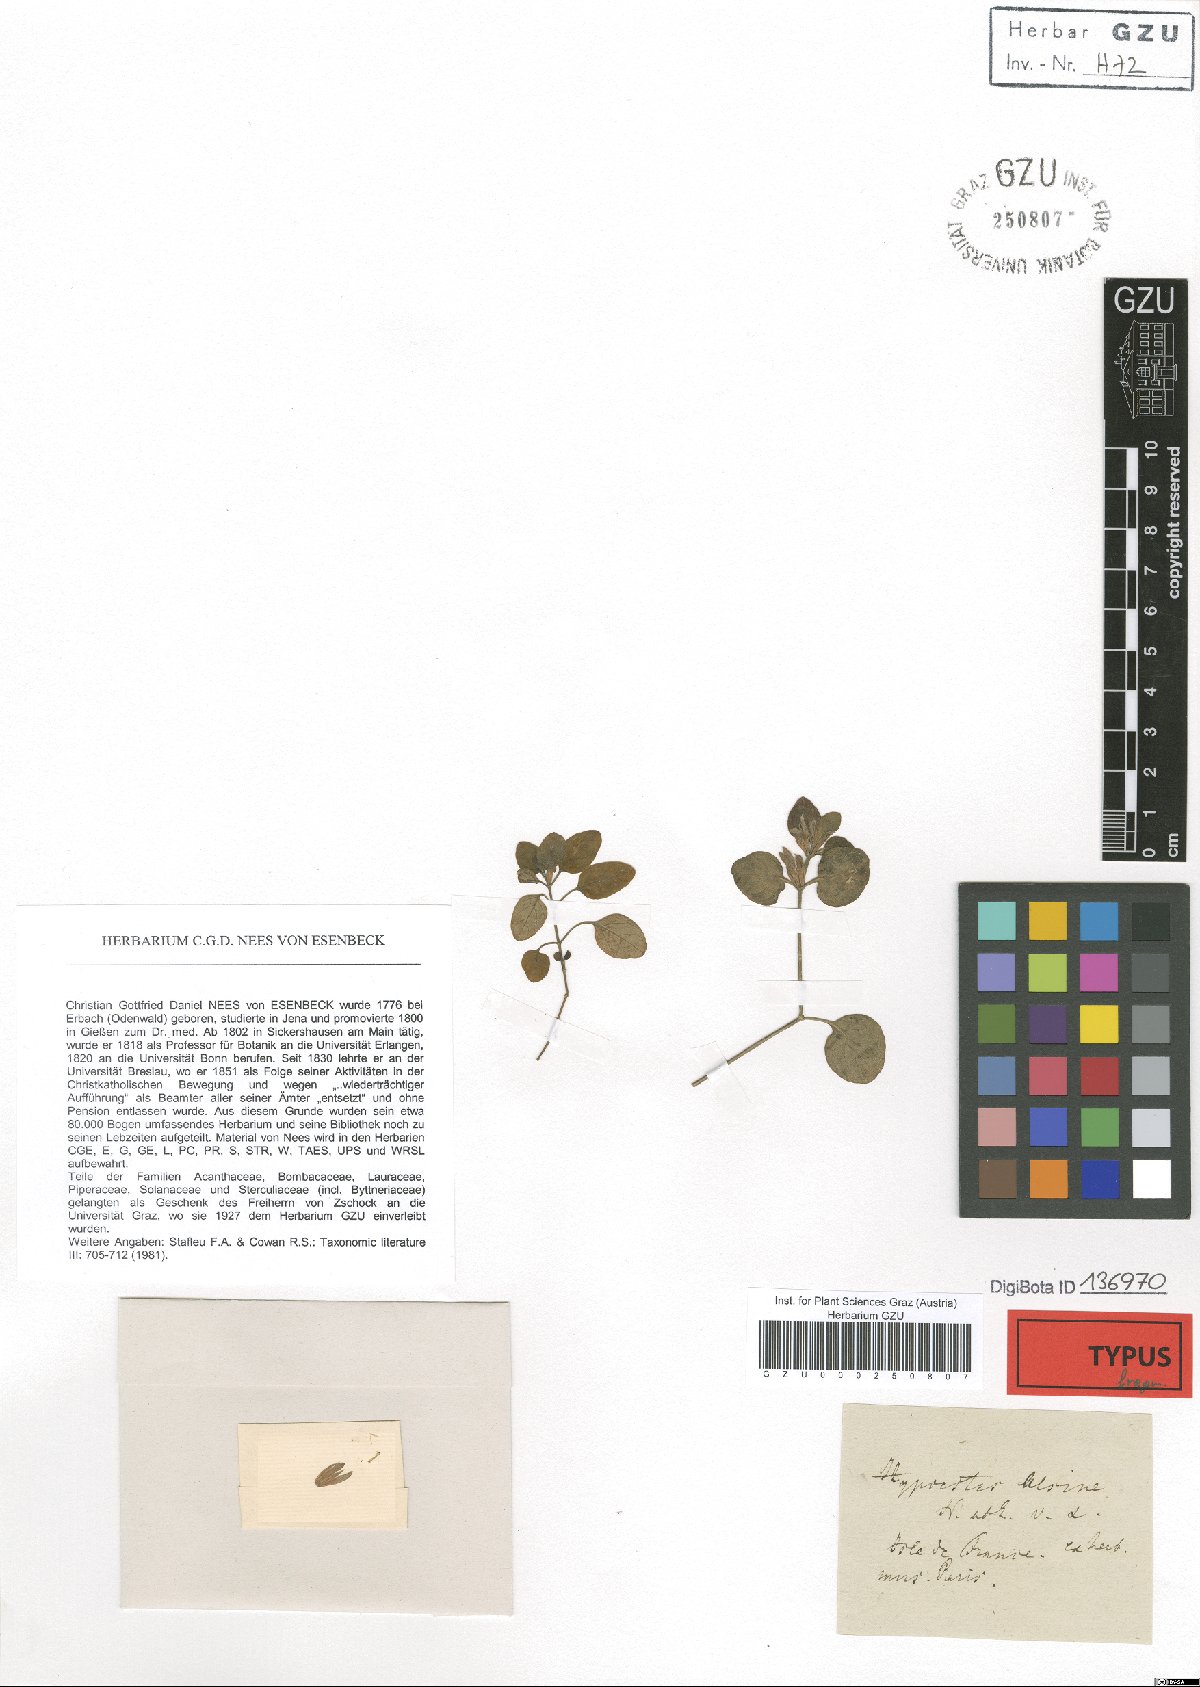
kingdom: Plantae
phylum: Tracheophyta
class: Magnoliopsida
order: Lamiales
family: Acanthaceae
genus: Hypoestes
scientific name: Hypoestes serpens
